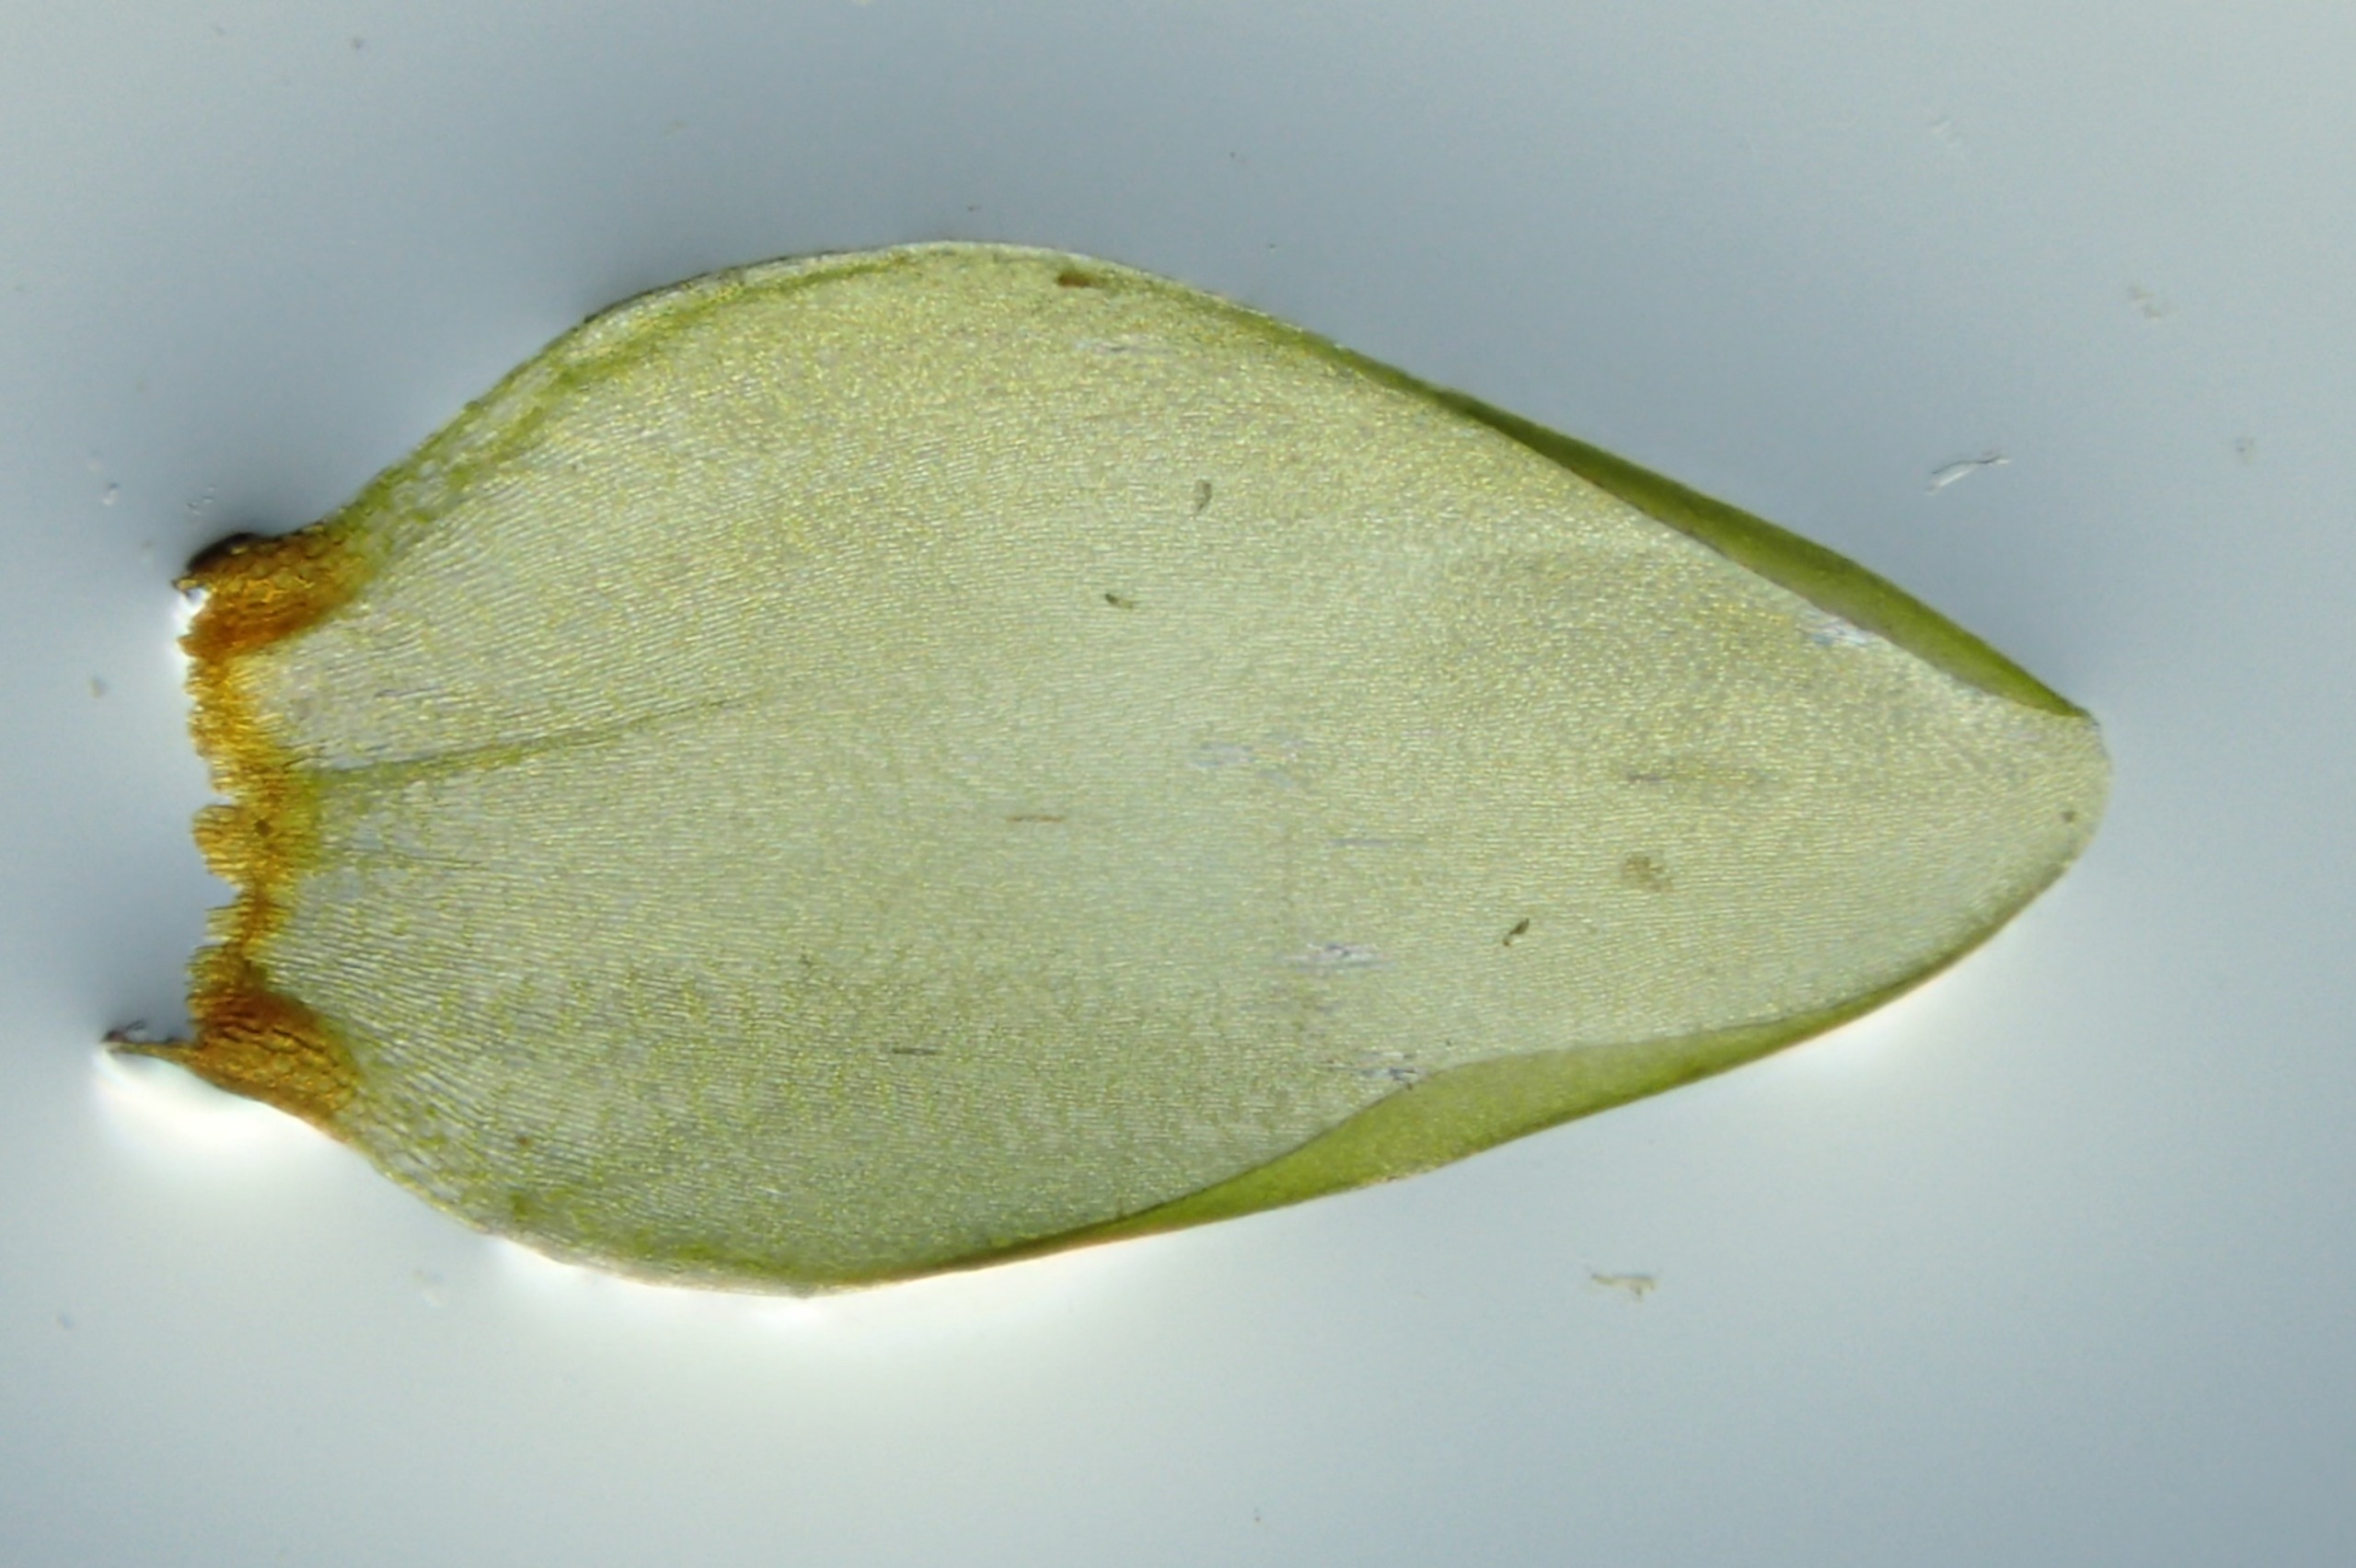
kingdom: Plantae
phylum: Bryophyta
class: Bryopsida
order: Hypnales
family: Hylocomiaceae
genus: Pleurozium
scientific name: Pleurozium schreberi
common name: Trind fyrremos
